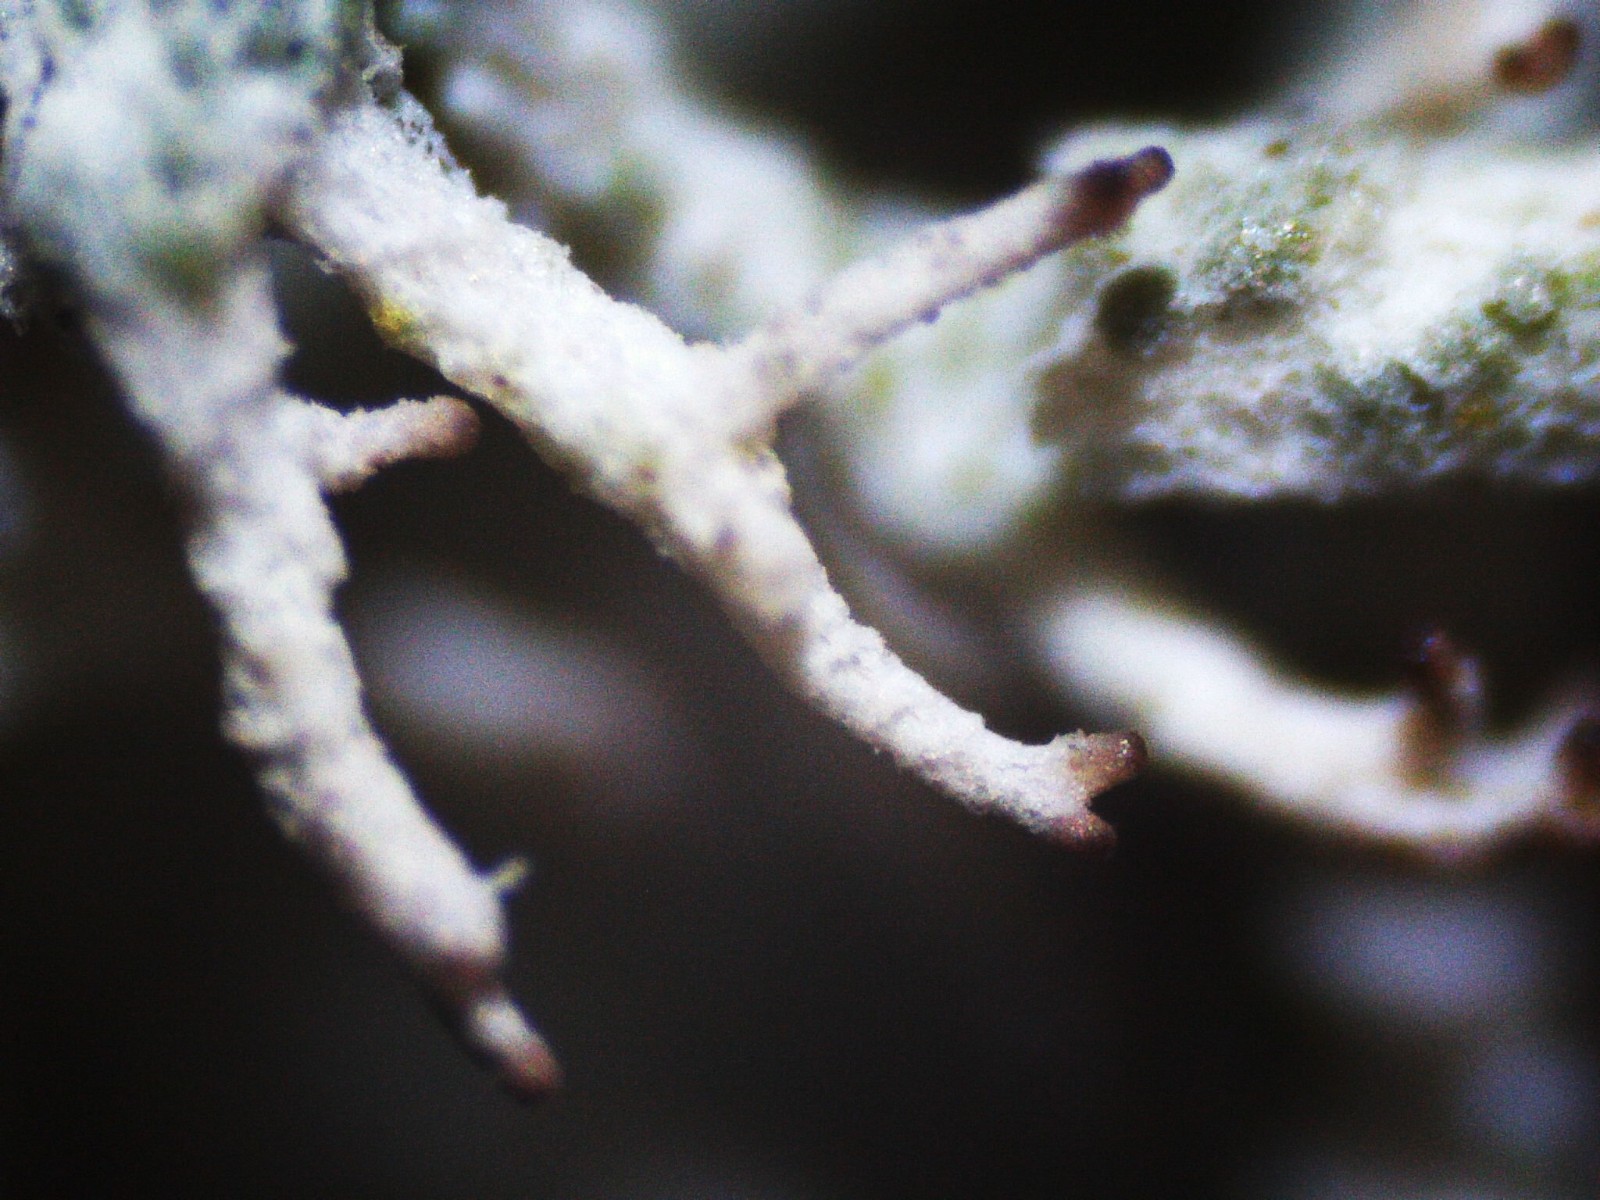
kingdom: Fungi
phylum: Ascomycota
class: Lecanoromycetes
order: Lecanorales
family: Cladoniaceae
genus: Cladonia
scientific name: Cladonia portentosa
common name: hede-rensdyrlav
